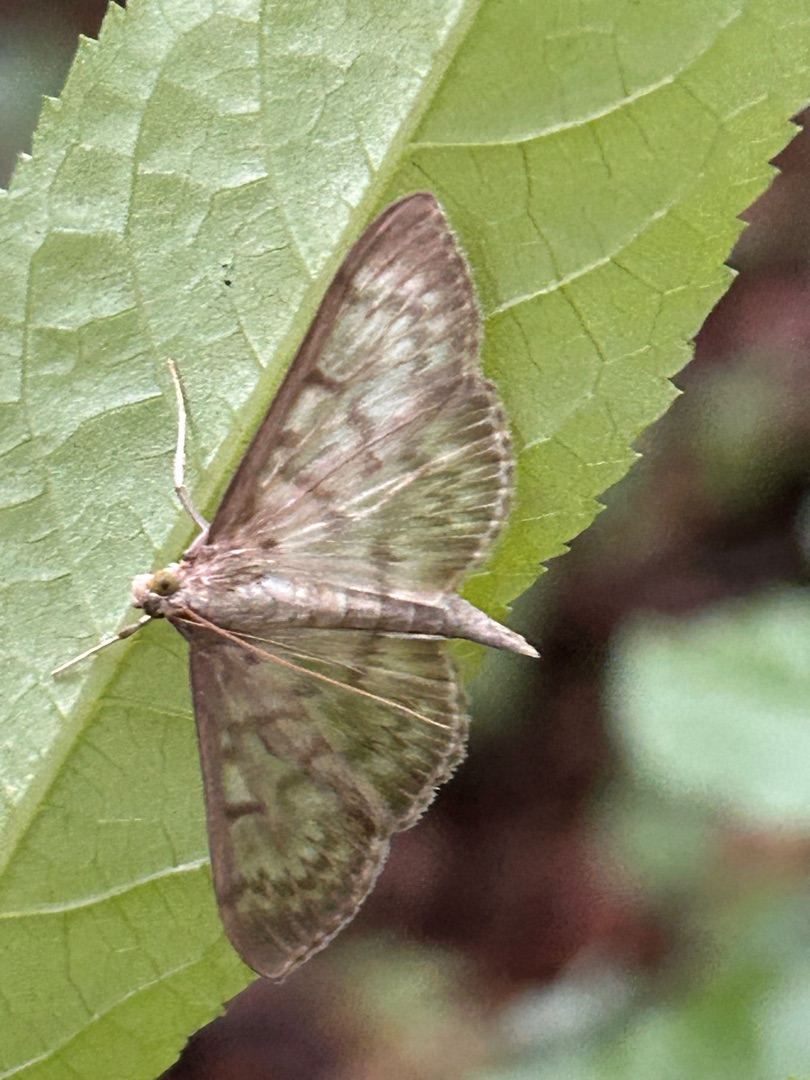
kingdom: Animalia
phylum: Arthropoda
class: Insecta
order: Lepidoptera
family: Crambidae
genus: Patania
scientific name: Patania ruralis
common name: Perlemorshalvmøl
